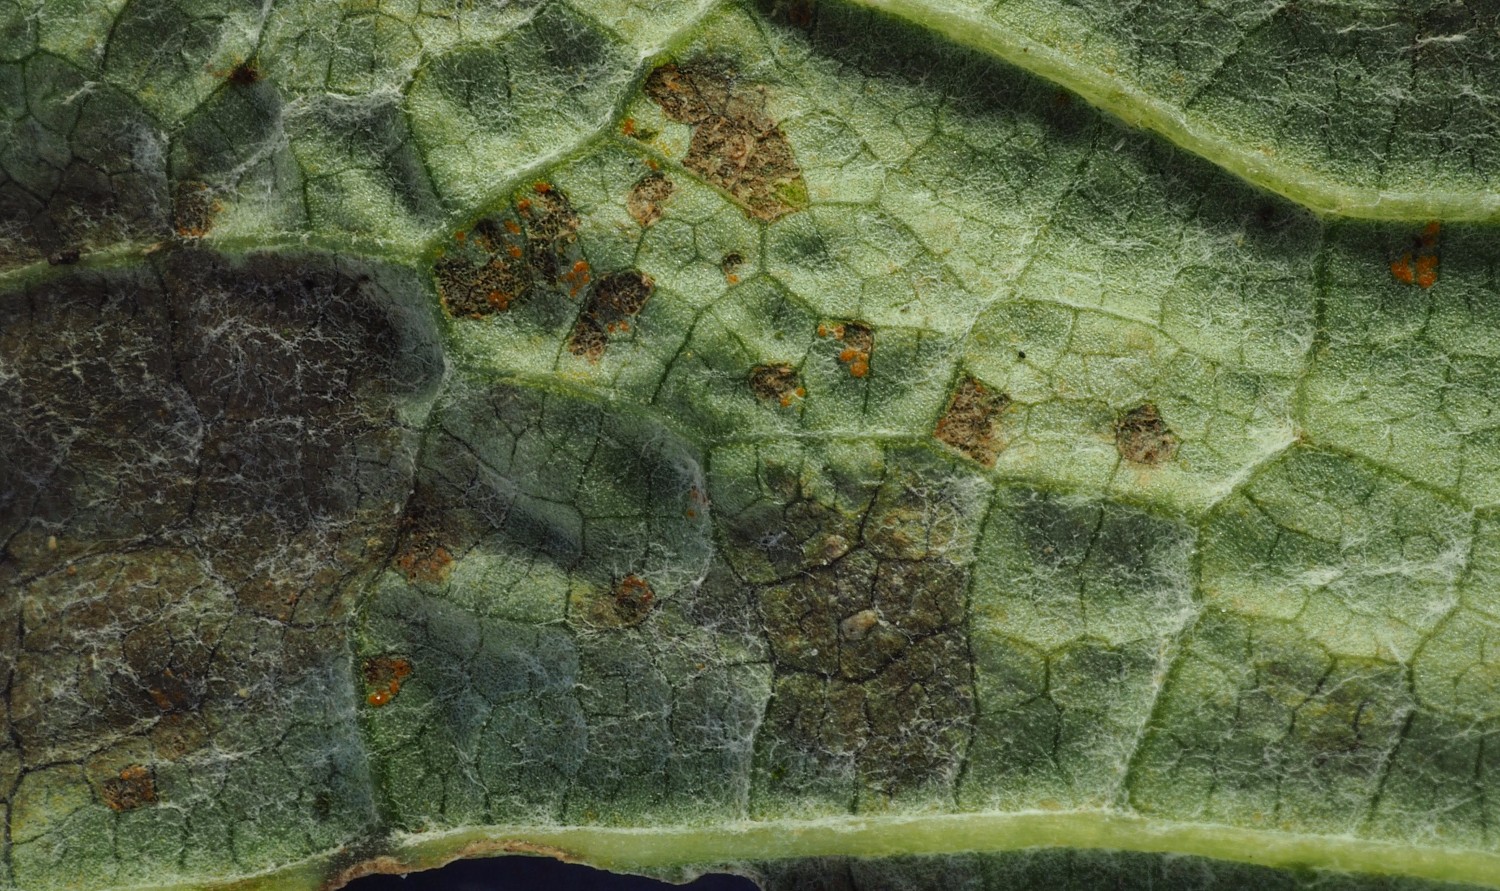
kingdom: Fungi
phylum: Basidiomycota
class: Pucciniomycetes
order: Pucciniales
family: Coleosporiaceae
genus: Coleosporium
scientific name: Coleosporium tussilaginis
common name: almindelig fyrrenålerust
